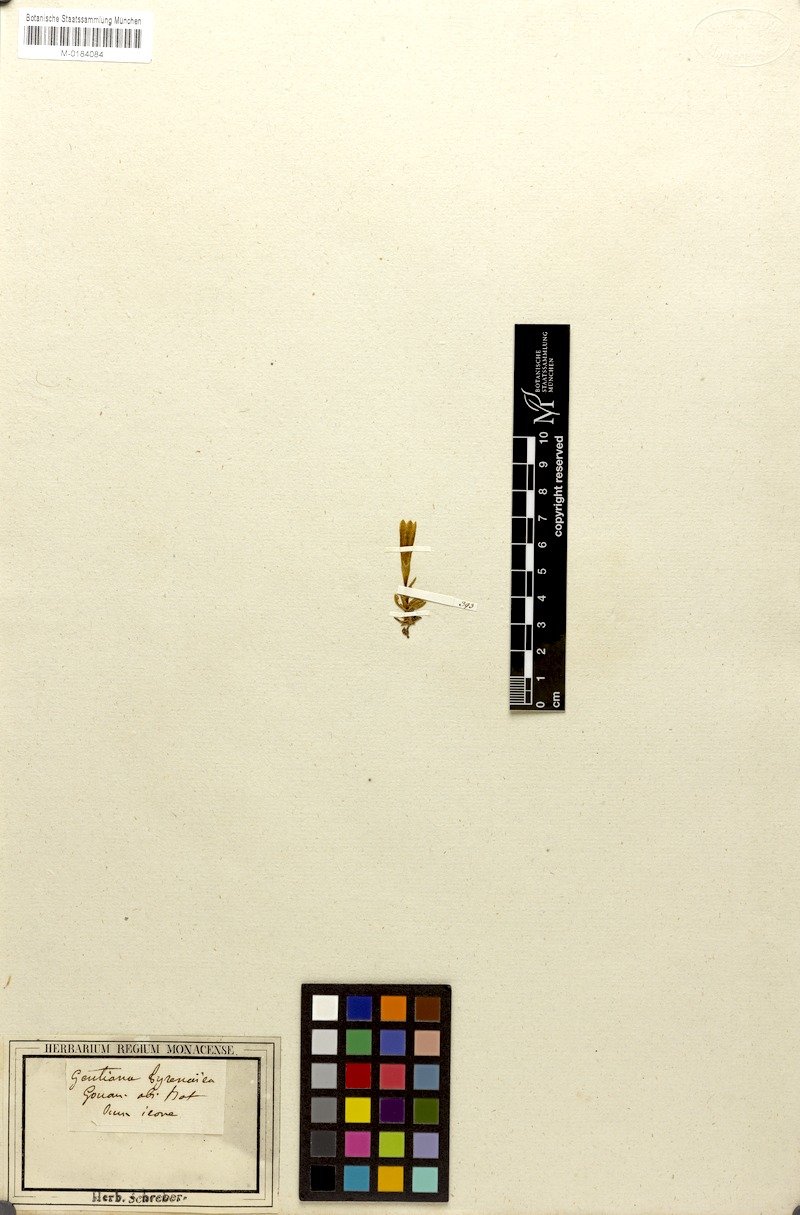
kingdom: Plantae
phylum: Tracheophyta
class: Magnoliopsida
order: Gentianales
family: Gentianaceae
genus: Gentiana
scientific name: Gentiana pyrenaica
